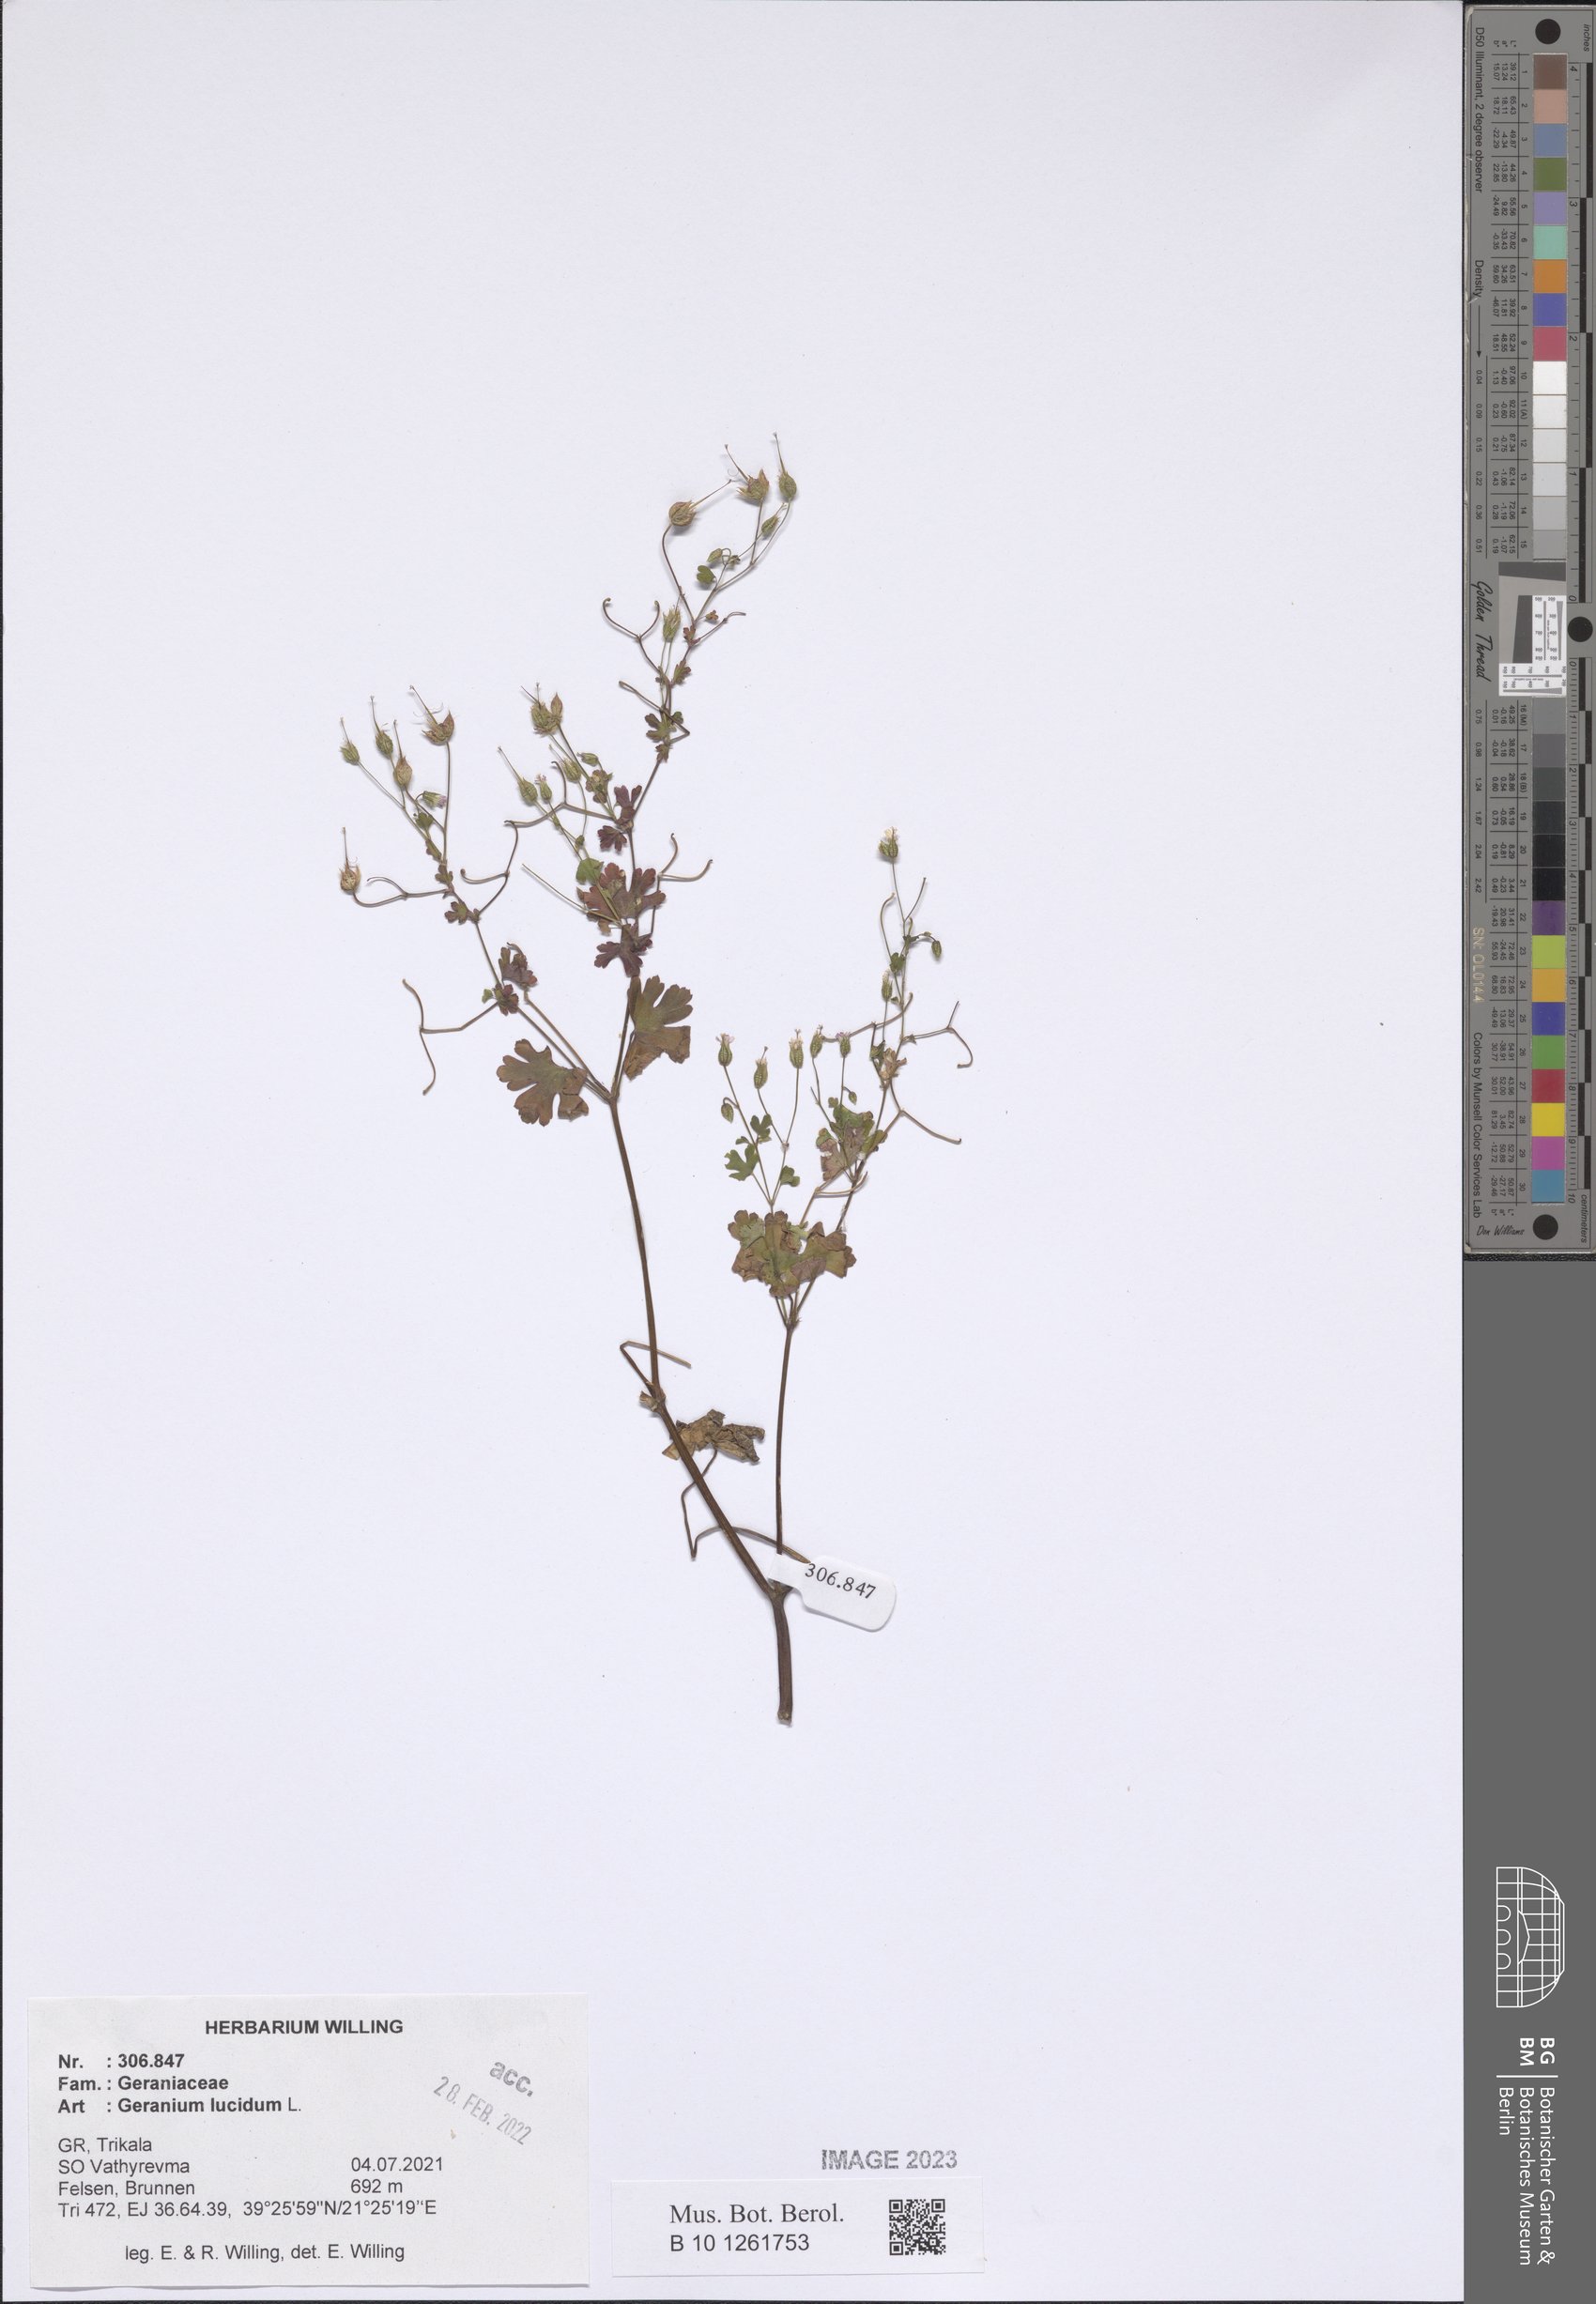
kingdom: Plantae
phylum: Tracheophyta
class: Magnoliopsida
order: Geraniales
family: Geraniaceae
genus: Geranium
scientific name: Geranium lucidum
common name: Shining crane's-bill
